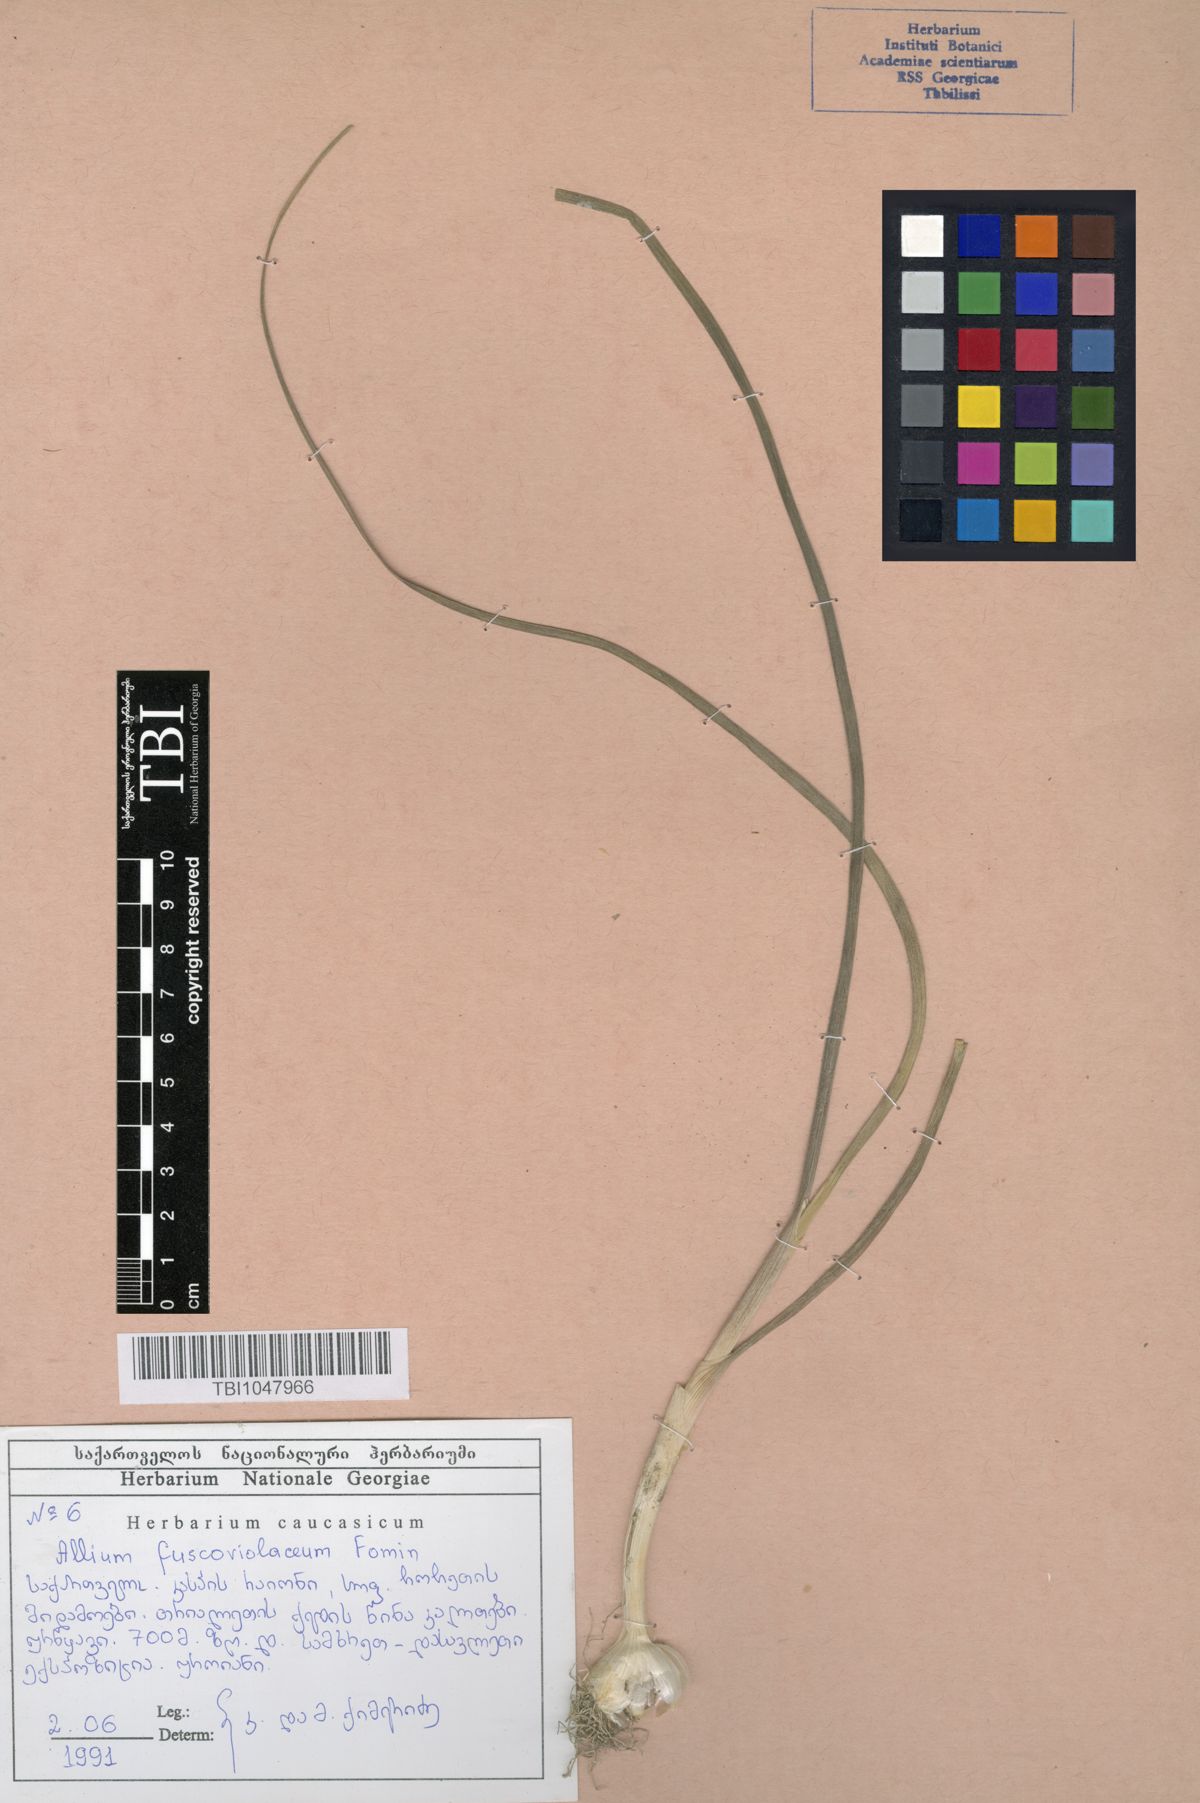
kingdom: Plantae
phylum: Tracheophyta
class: Liliopsida
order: Asparagales
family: Amaryllidaceae
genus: Allium
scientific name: Allium fuscoviolaceum
